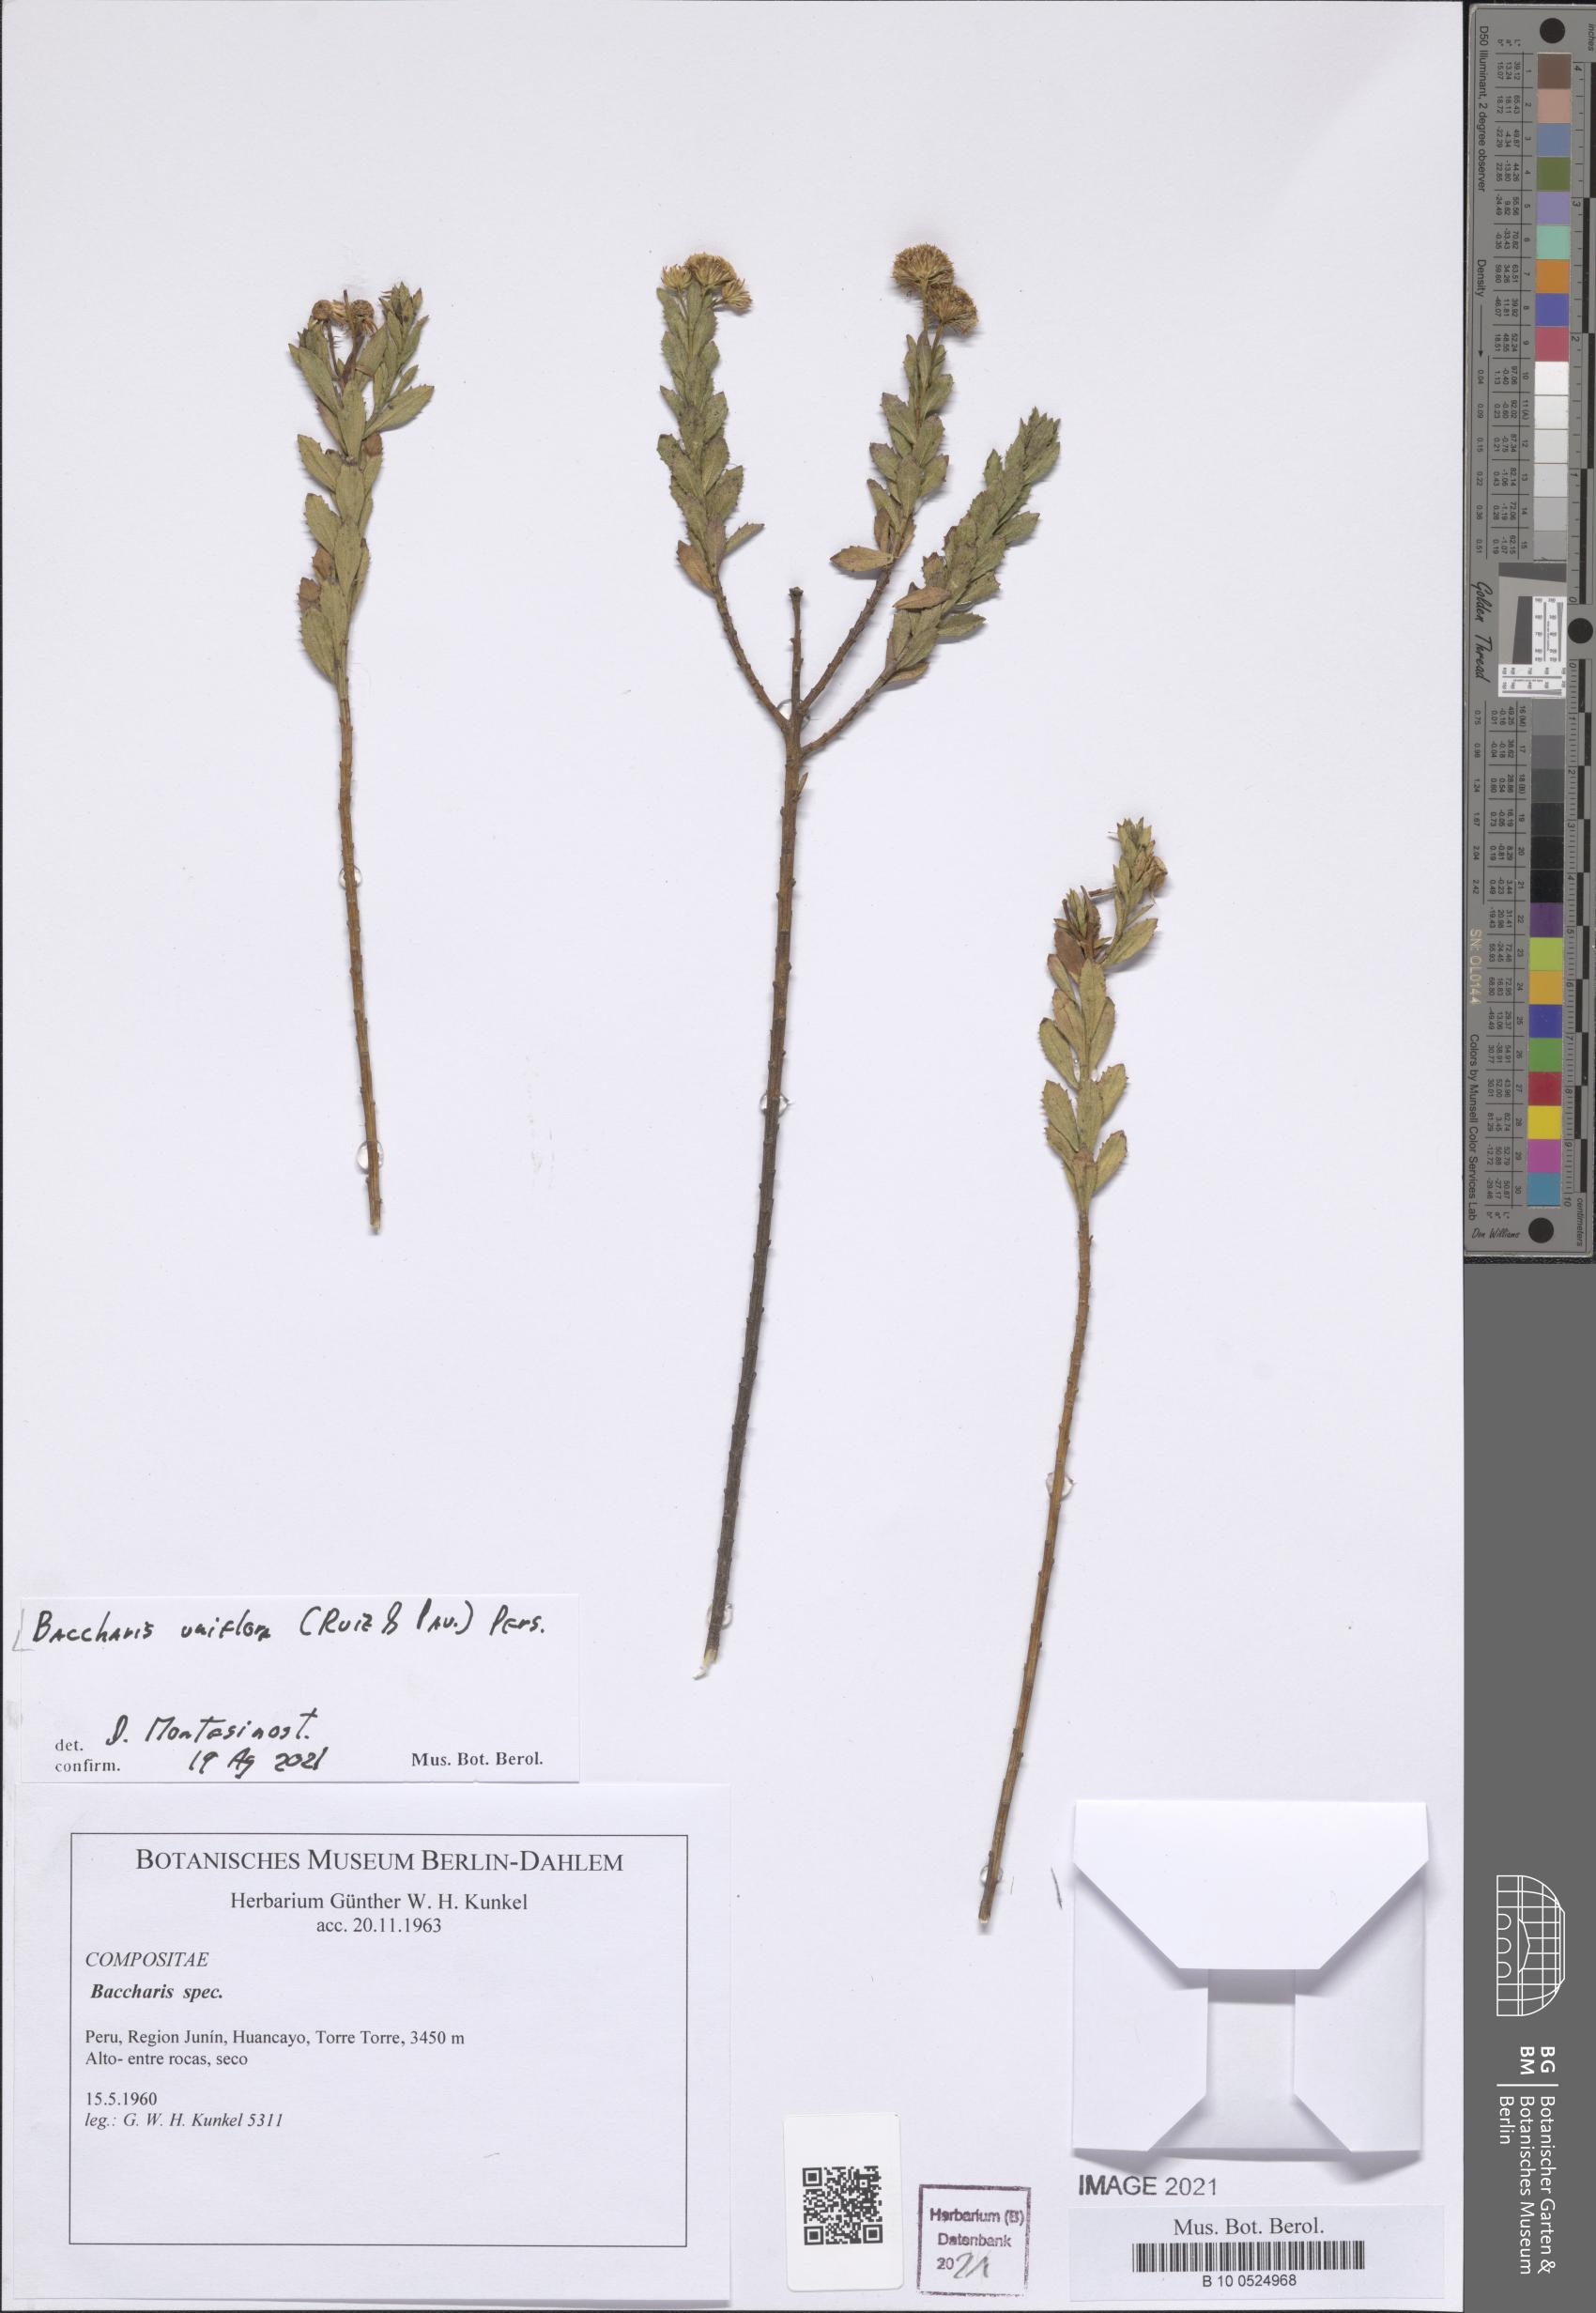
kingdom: Plantae
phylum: Tracheophyta
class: Magnoliopsida
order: Asterales
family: Asteraceae
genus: Baccharis
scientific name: Baccharis uniflora
